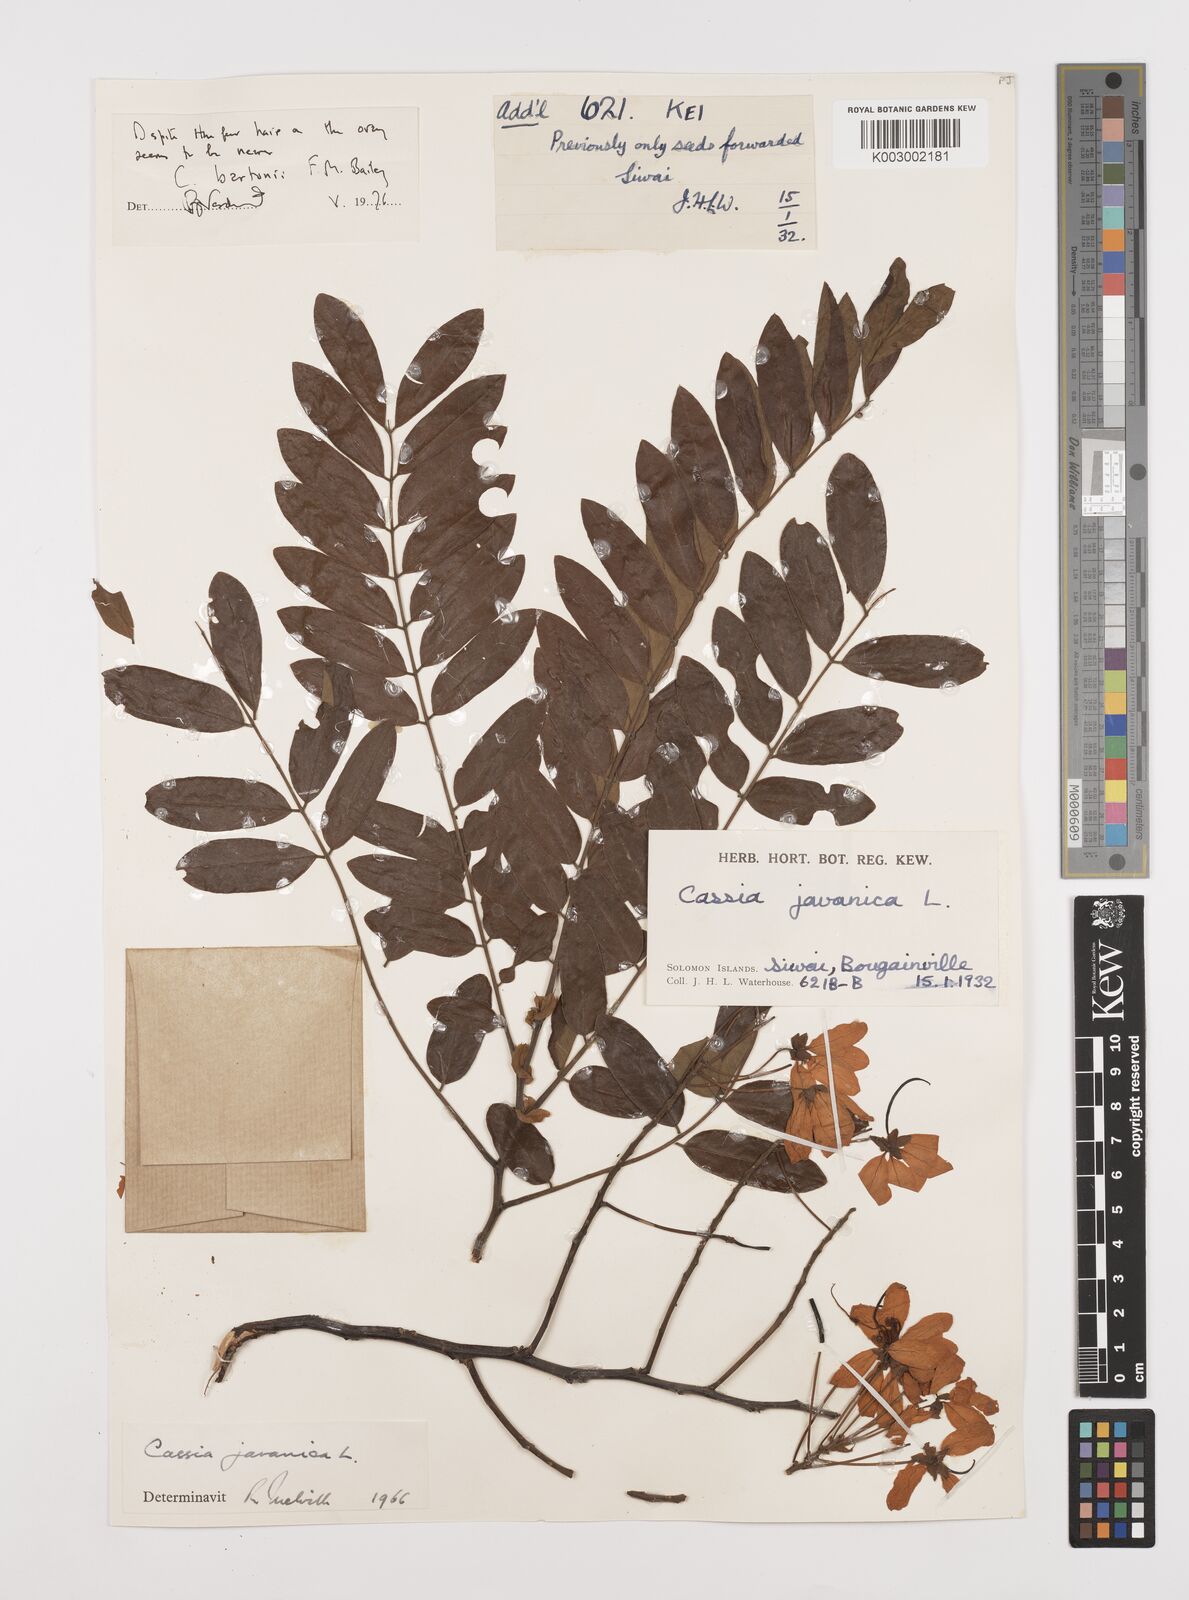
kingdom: Plantae
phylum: Tracheophyta
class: Magnoliopsida
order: Fabales
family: Fabaceae
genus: Cassia
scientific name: Cassia javanica
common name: Apple blossom
